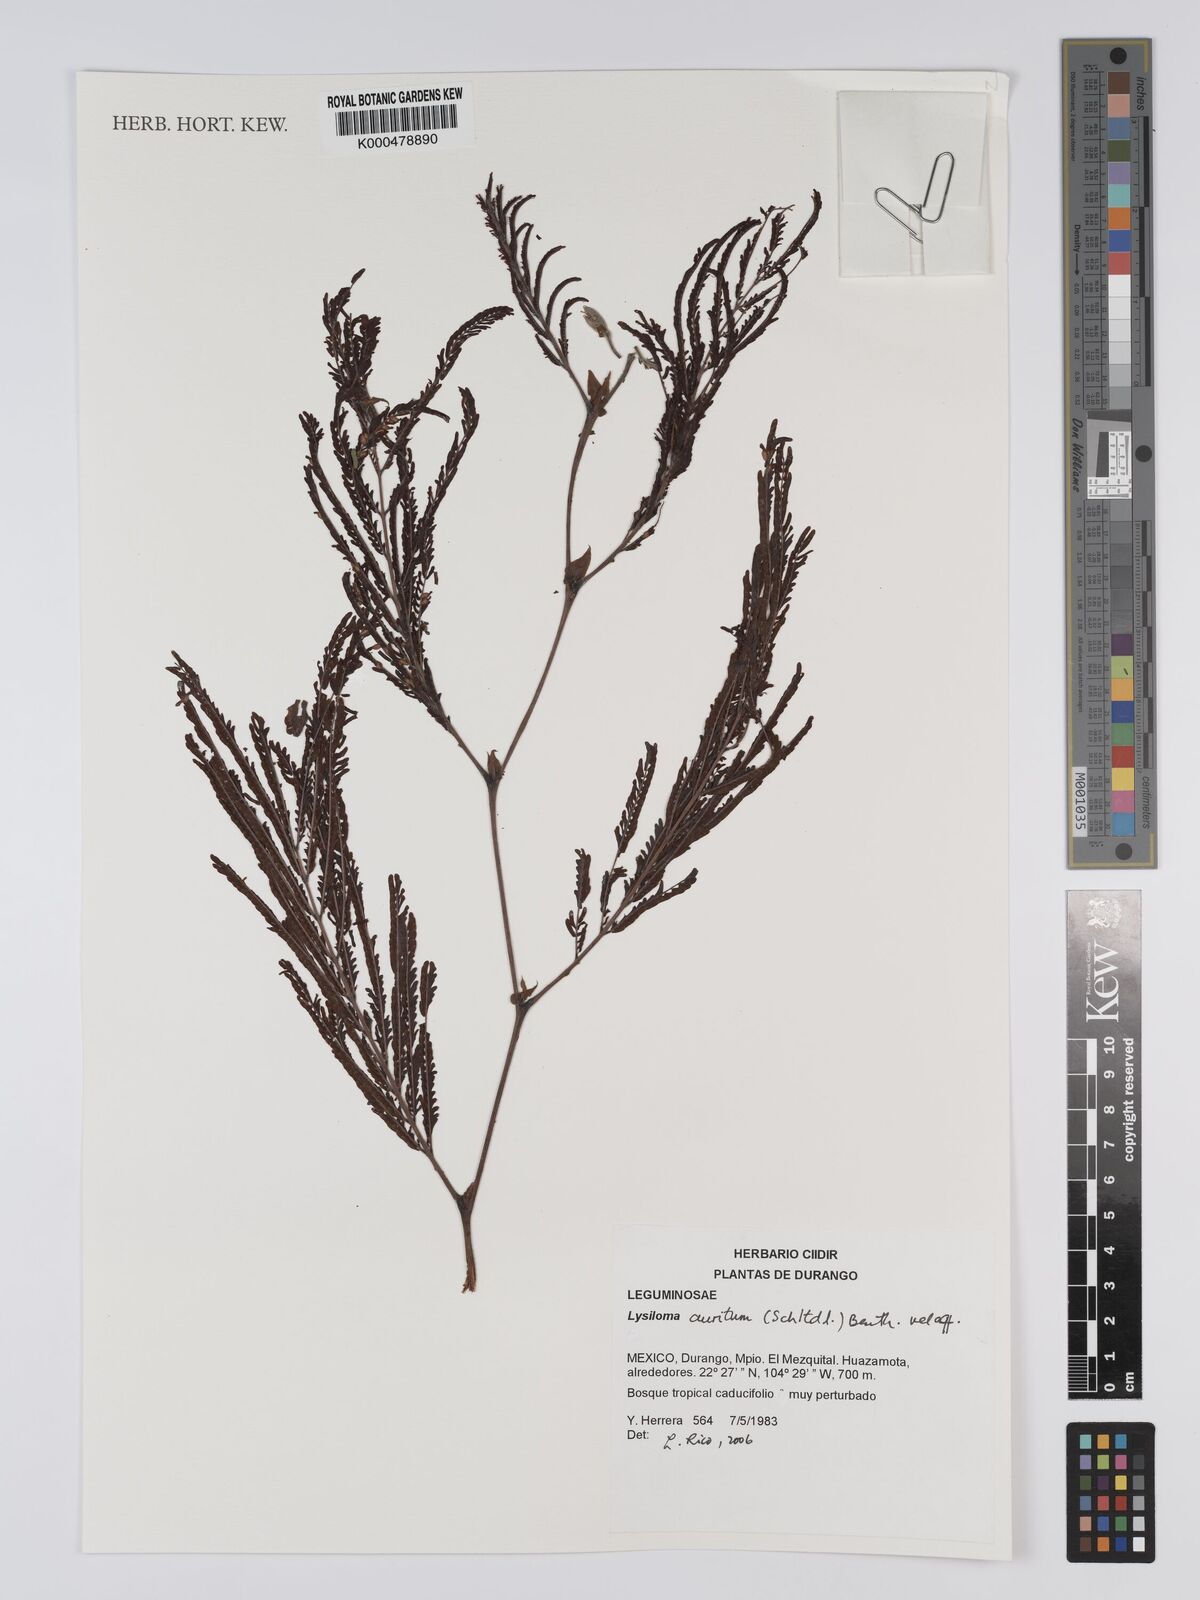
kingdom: Plantae
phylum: Tracheophyta
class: Magnoliopsida
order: Fabales
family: Fabaceae
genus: Lysiloma
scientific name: Lysiloma auritum
